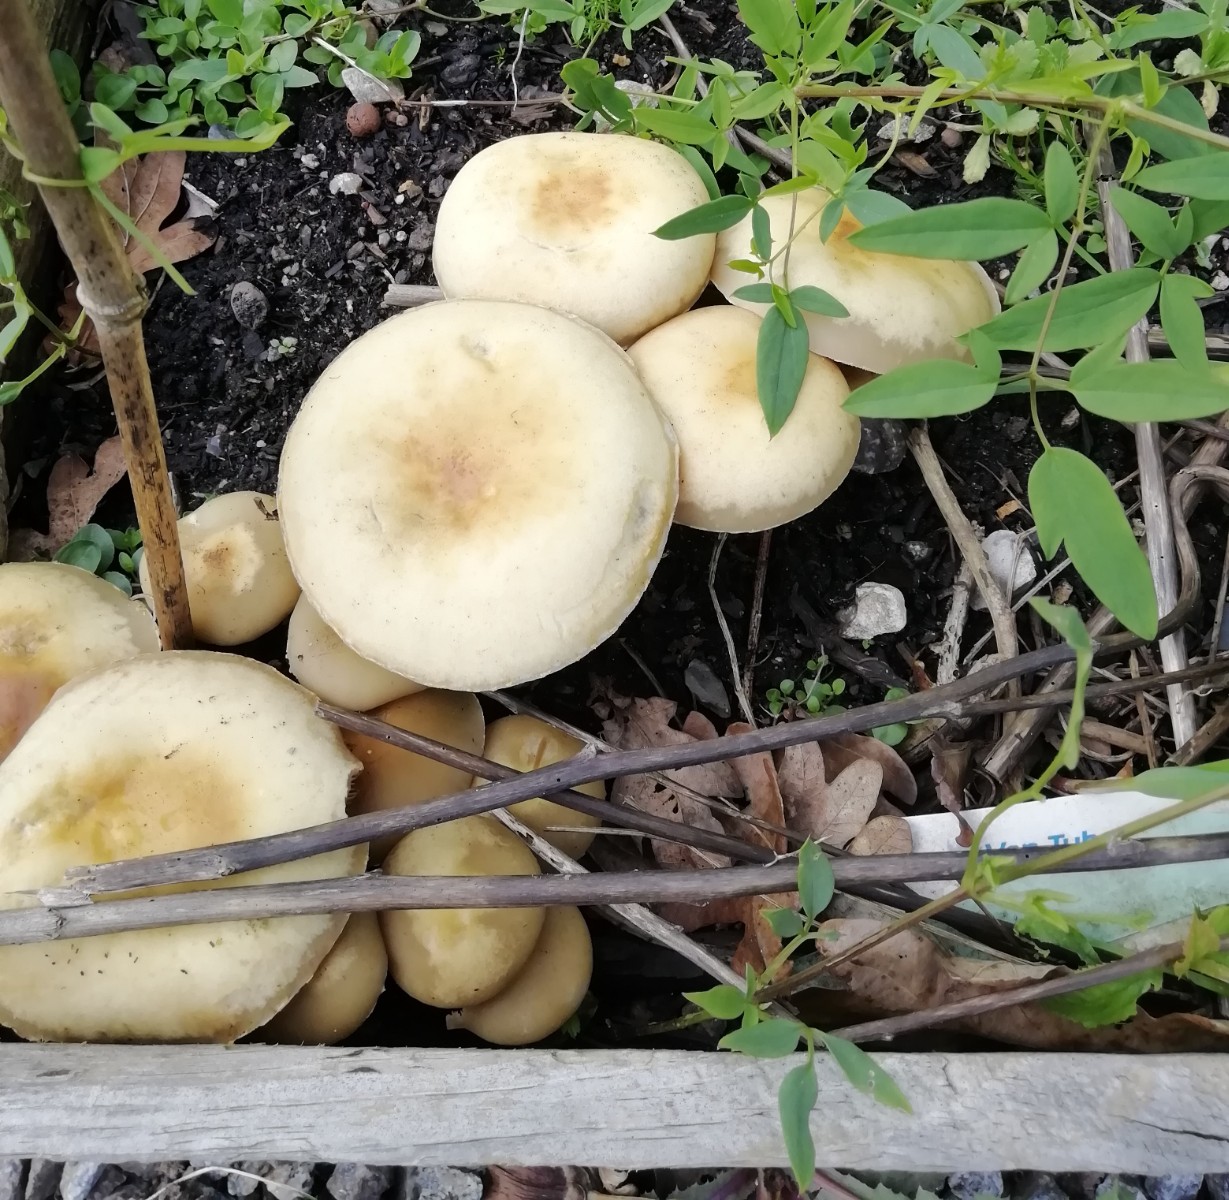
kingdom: Fungi
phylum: Basidiomycota
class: Agaricomycetes
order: Agaricales
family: Strophariaceae
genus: Agrocybe
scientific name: Agrocybe praecox
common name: tidlig agerhat
